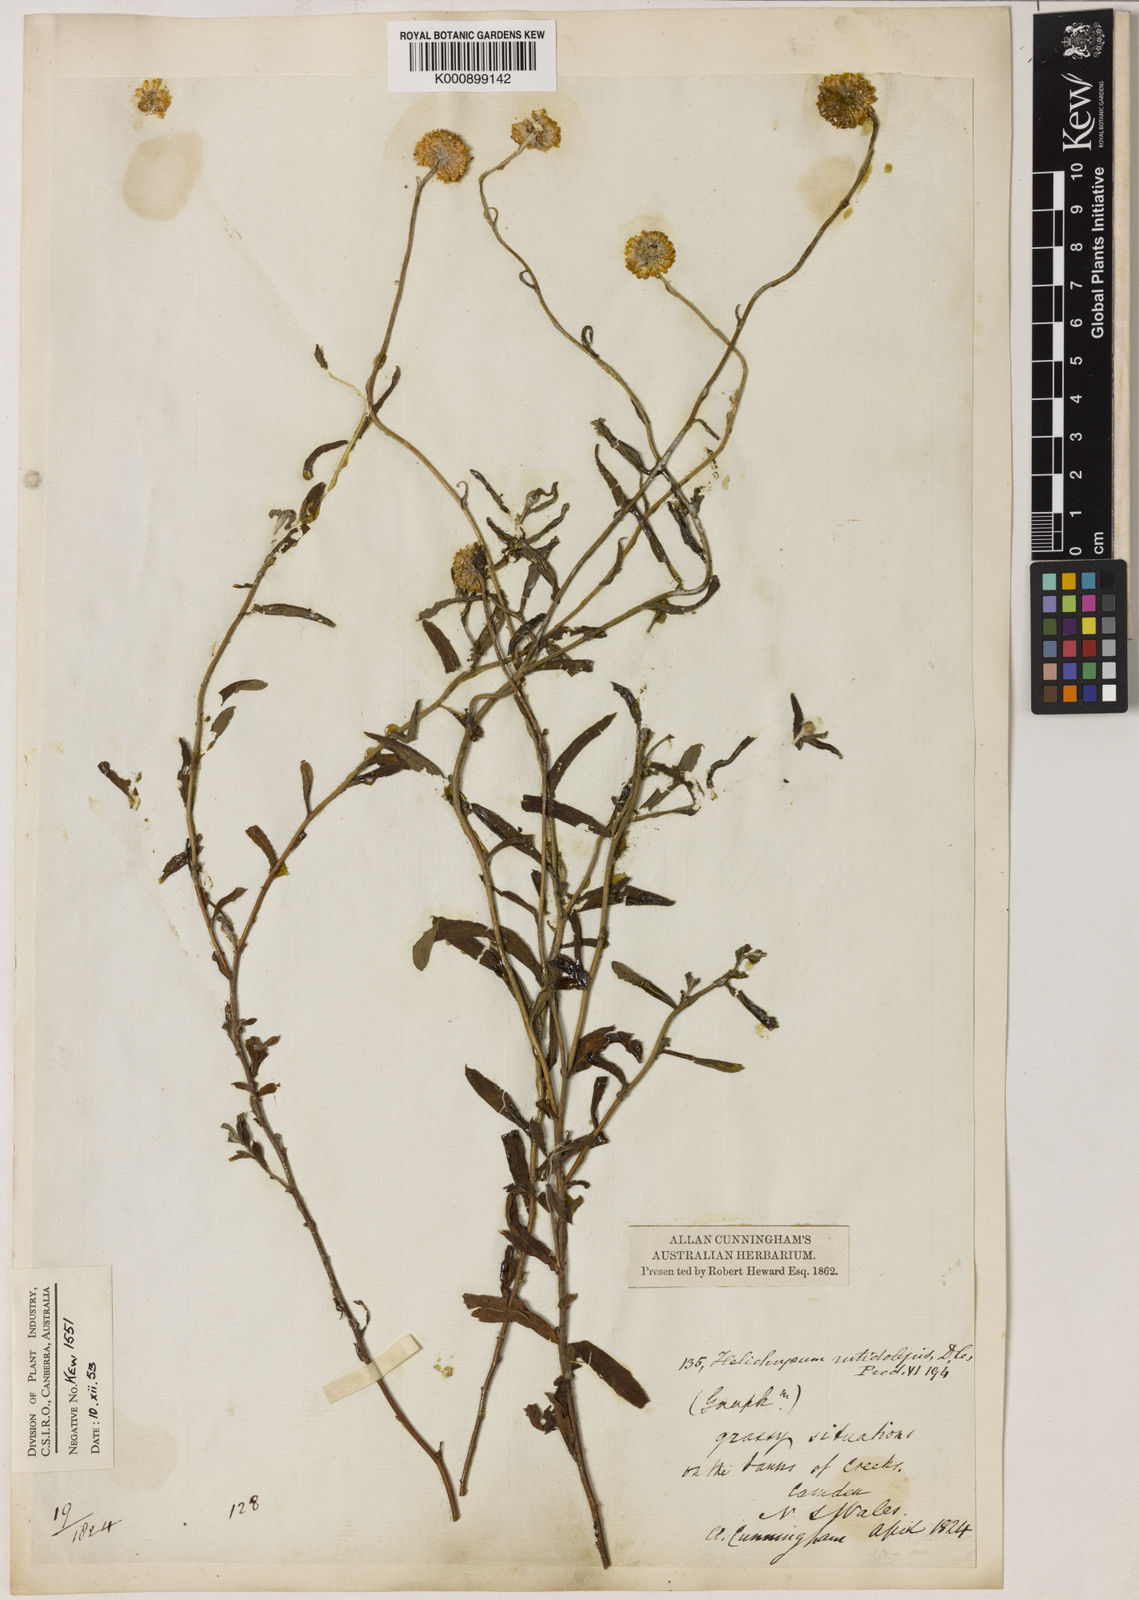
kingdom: Plantae
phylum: Tracheophyta
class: Magnoliopsida
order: Asterales
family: Asteraceae
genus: Coronidium
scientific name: Coronidium rutidolepis
